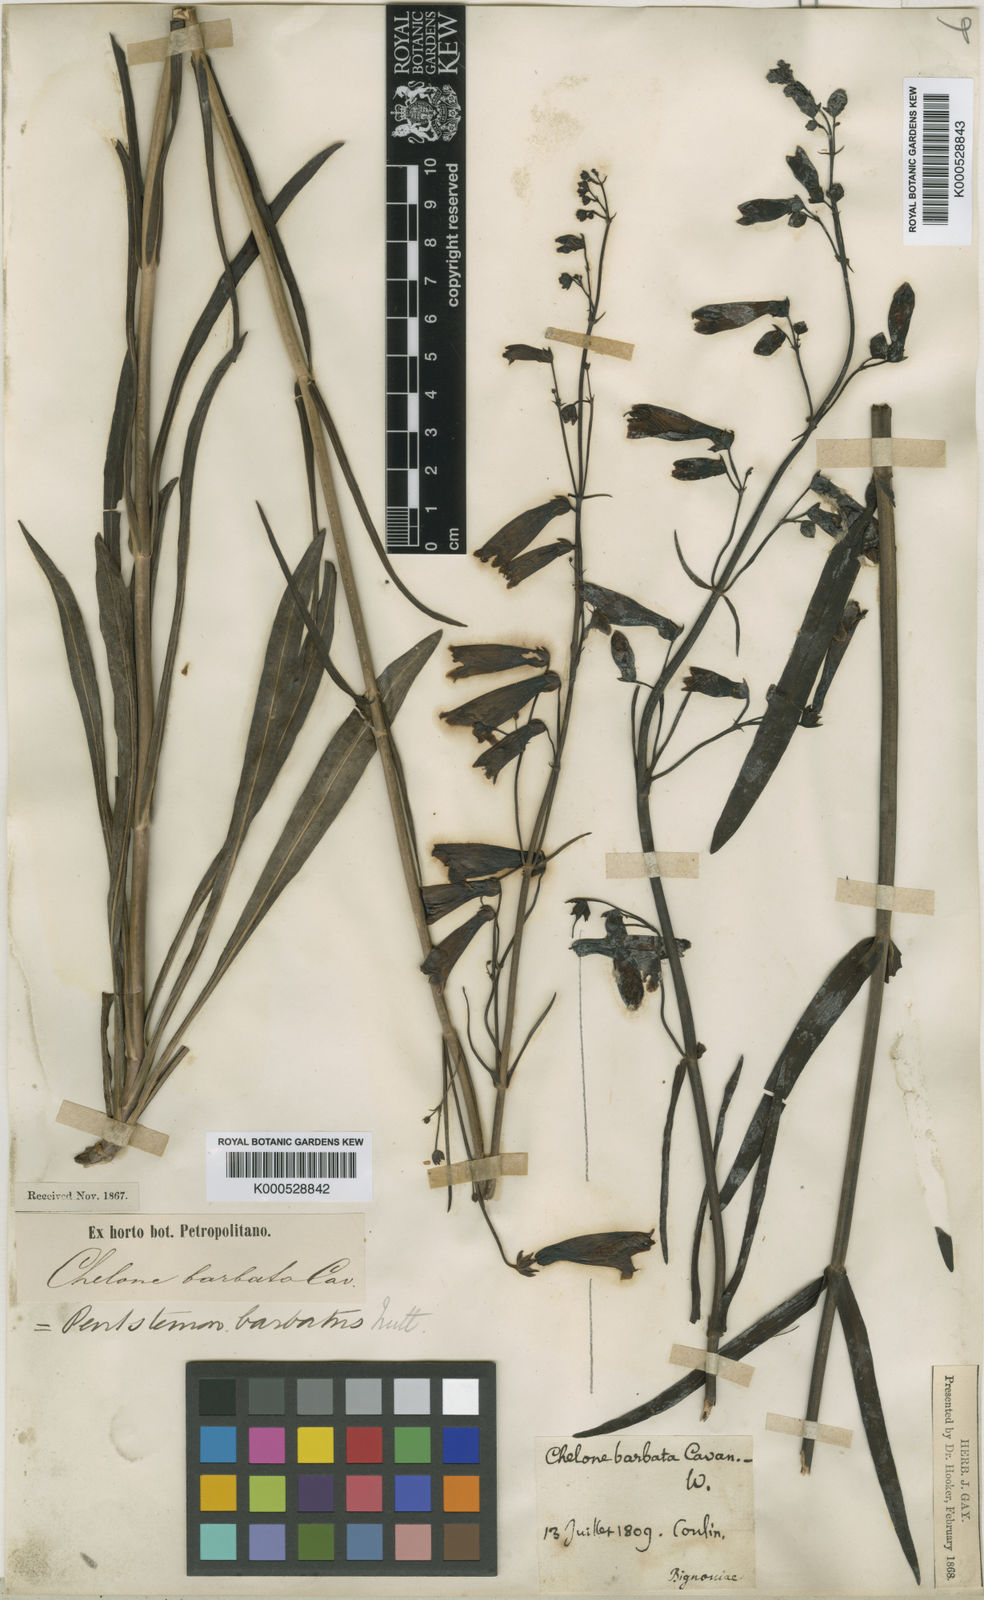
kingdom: Plantae
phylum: Tracheophyta
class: Magnoliopsida
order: Lamiales
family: Plantaginaceae
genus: Penstemon
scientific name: Penstemon barbatus
